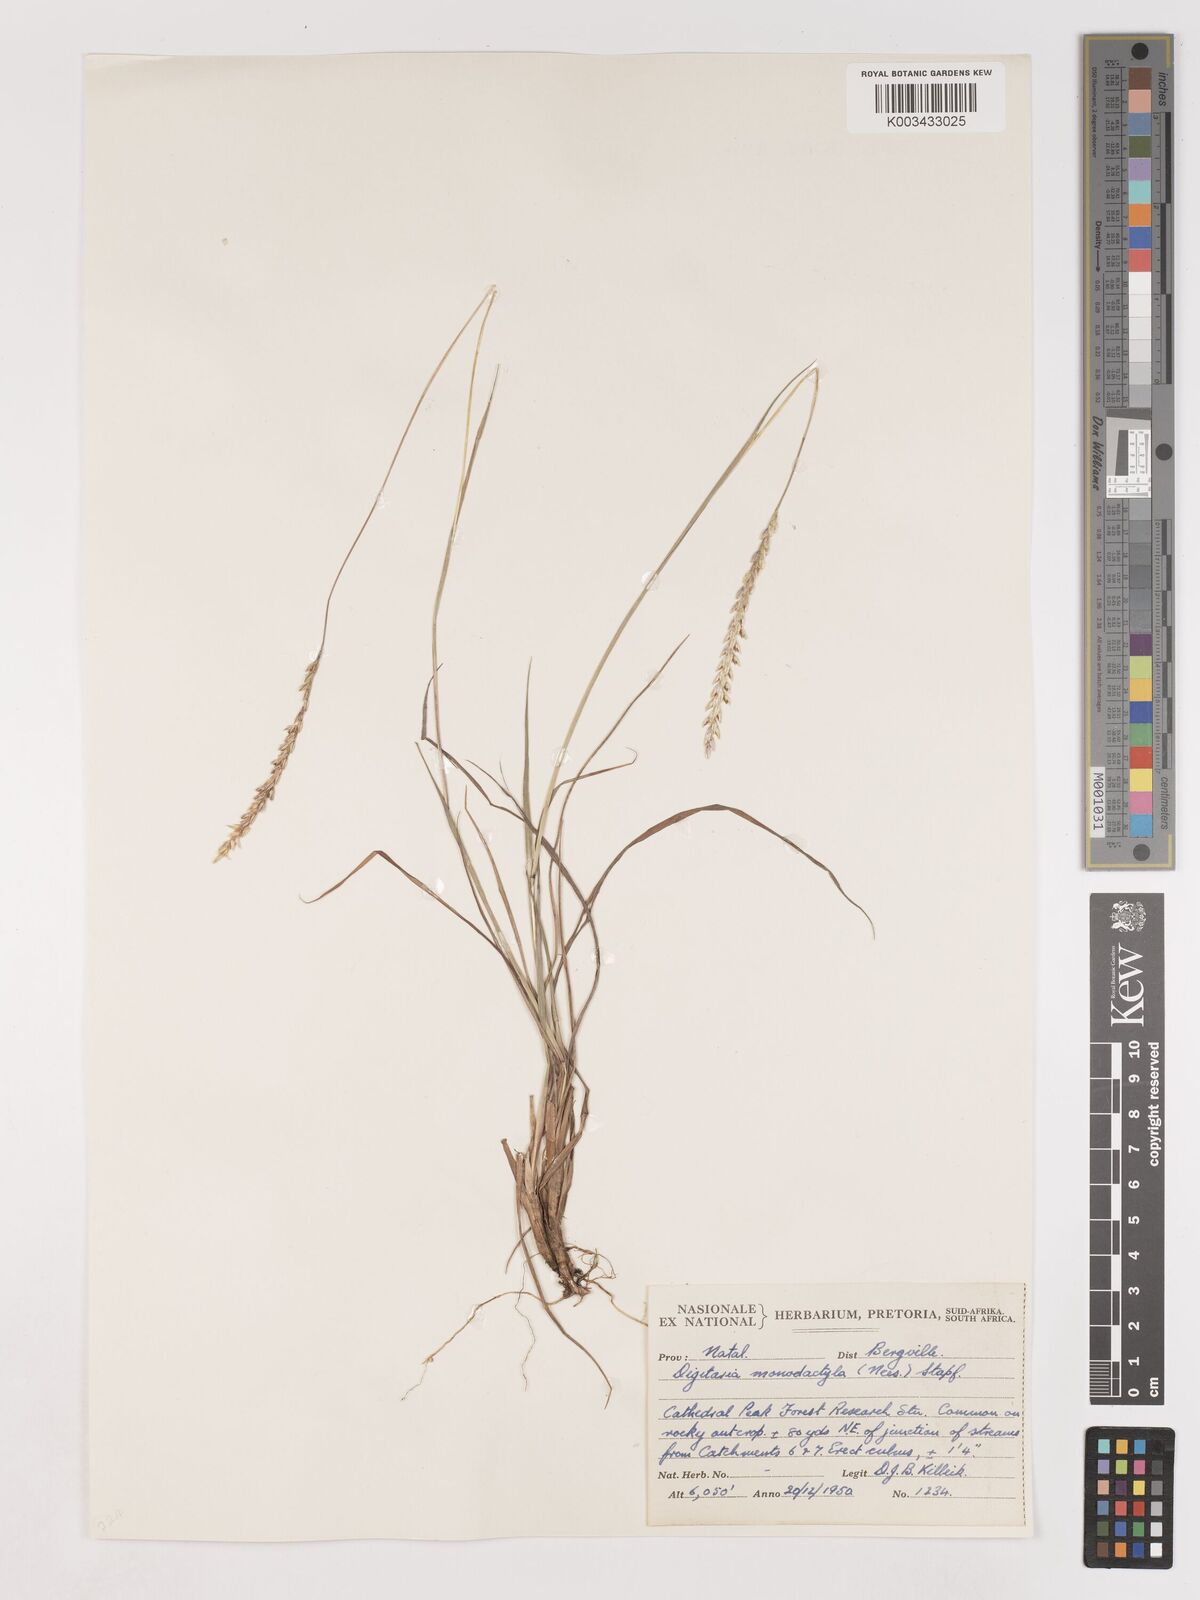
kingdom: Plantae
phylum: Tracheophyta
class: Liliopsida
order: Poales
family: Poaceae
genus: Digitaria
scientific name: Digitaria monodactyla
